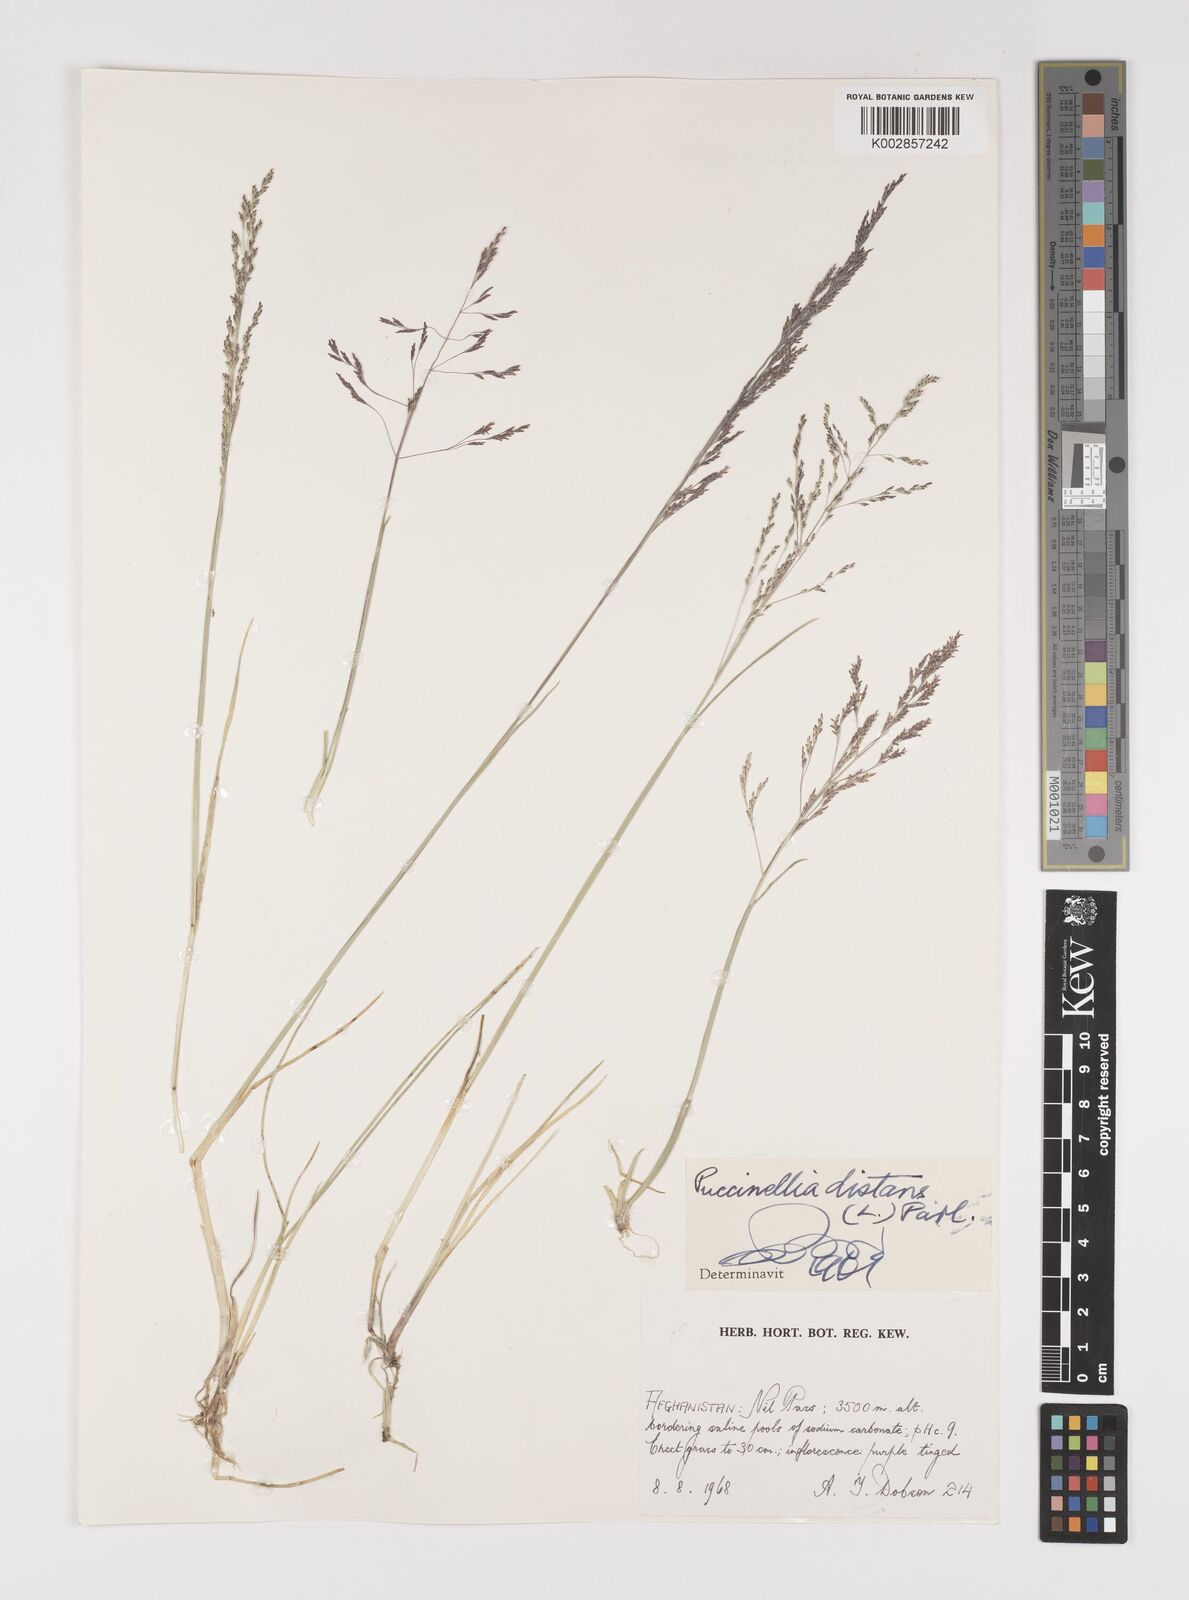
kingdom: Plantae
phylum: Tracheophyta
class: Liliopsida
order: Poales
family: Poaceae
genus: Puccinellia
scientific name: Puccinellia distans
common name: Weeping alkaligrass
